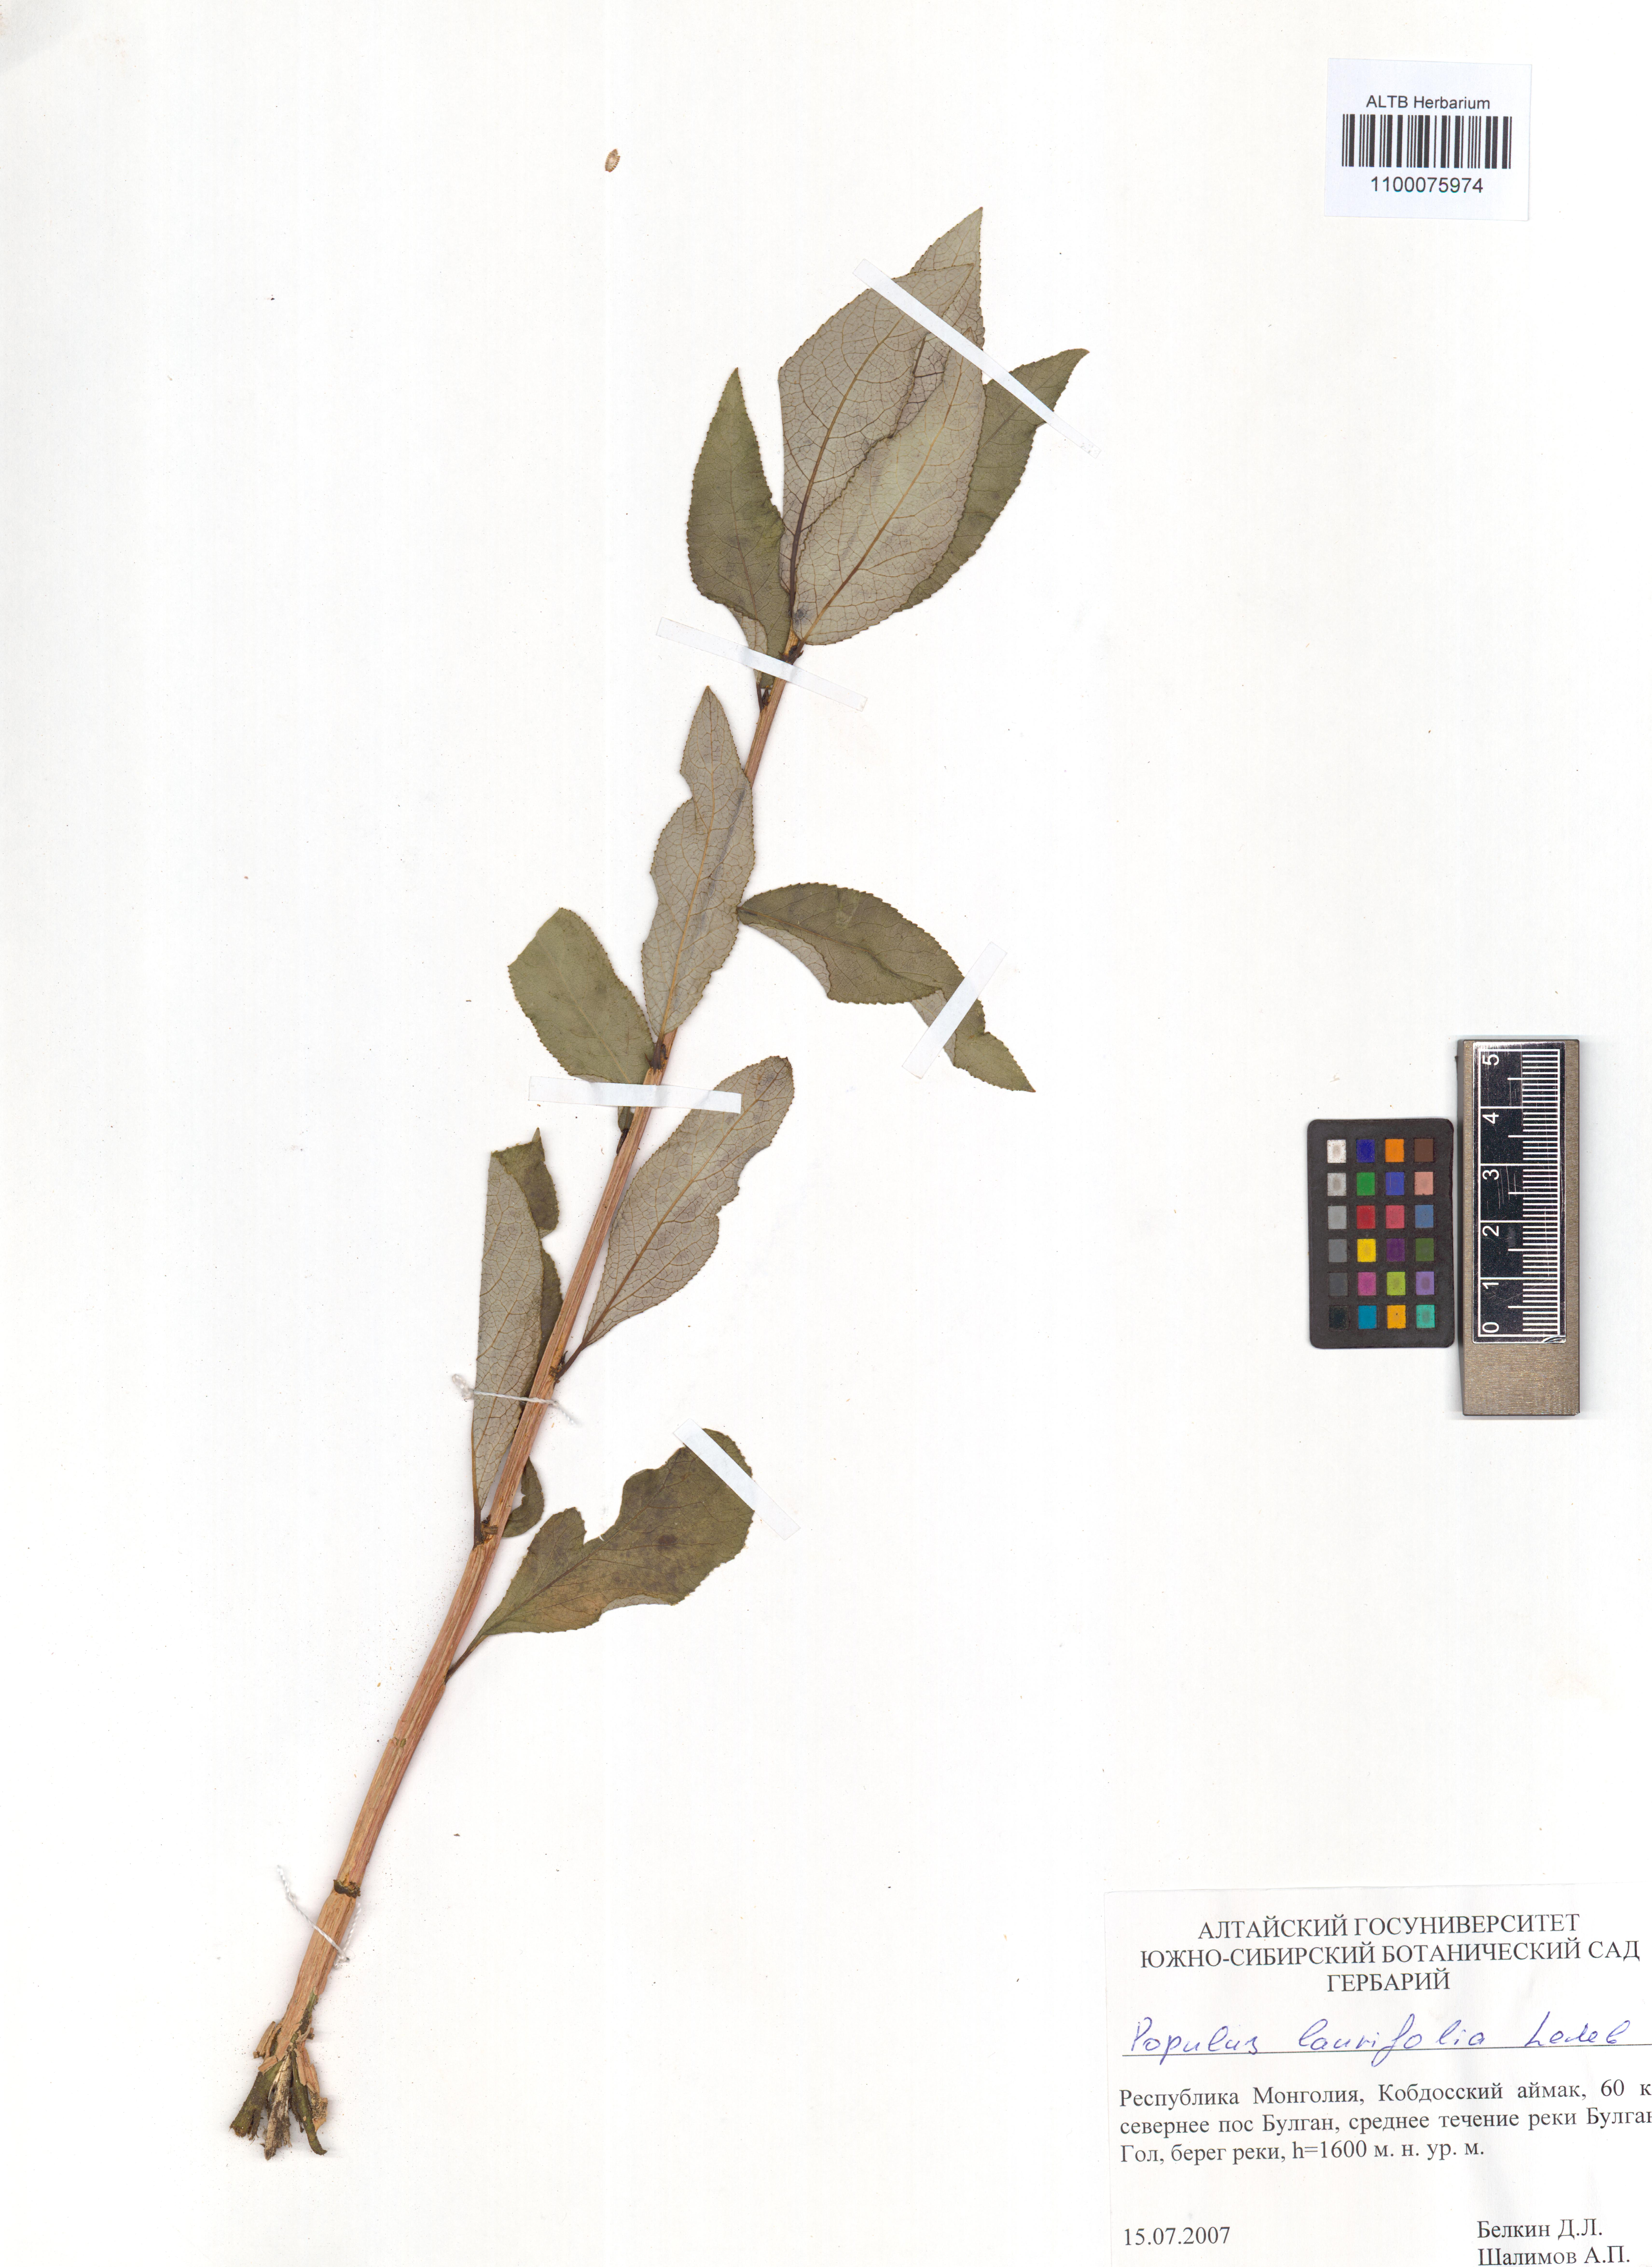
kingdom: Plantae
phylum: Tracheophyta
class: Magnoliopsida
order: Malpighiales
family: Salicaceae
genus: Populus
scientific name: Populus laurifolia
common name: Laurel-leaf poplar
